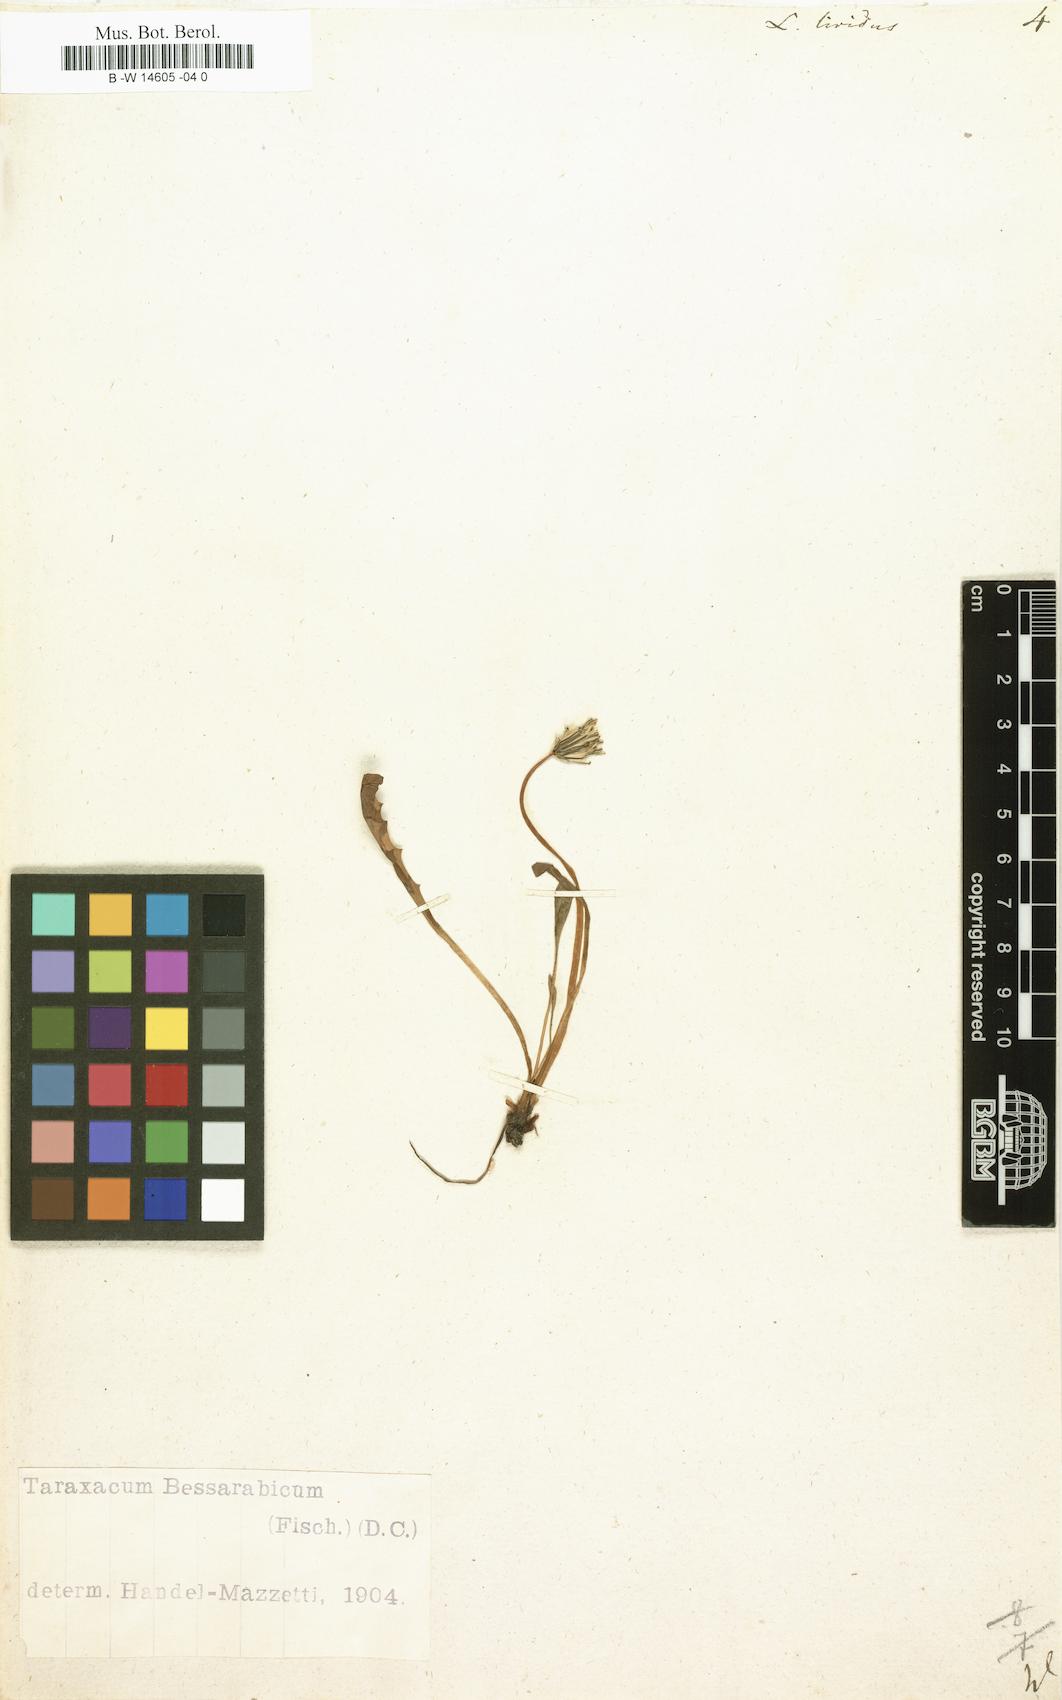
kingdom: Plantae
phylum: Tracheophyta
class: Magnoliopsida
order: Asterales
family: Asteraceae
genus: Taraxacum
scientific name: Taraxacum paludosum
